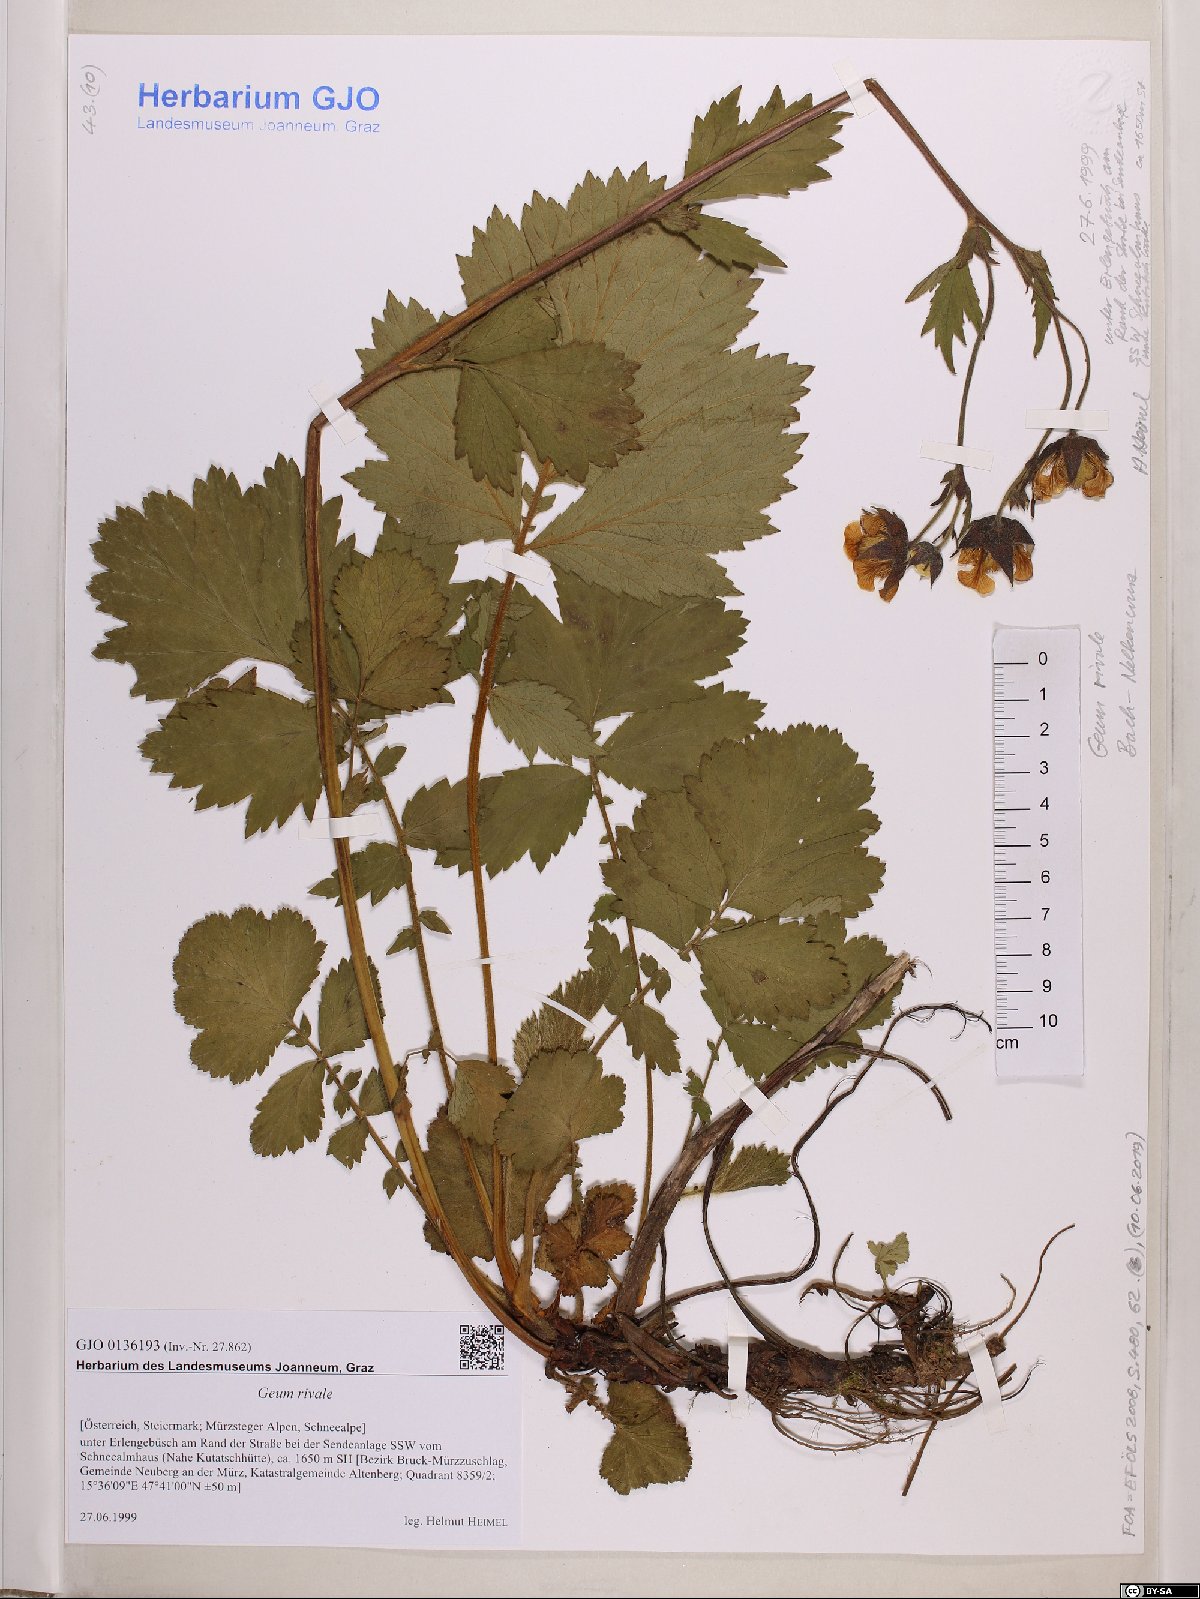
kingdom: Plantae
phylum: Tracheophyta
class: Magnoliopsida
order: Rosales
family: Rosaceae
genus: Geum
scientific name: Geum rivale
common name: Water avens
